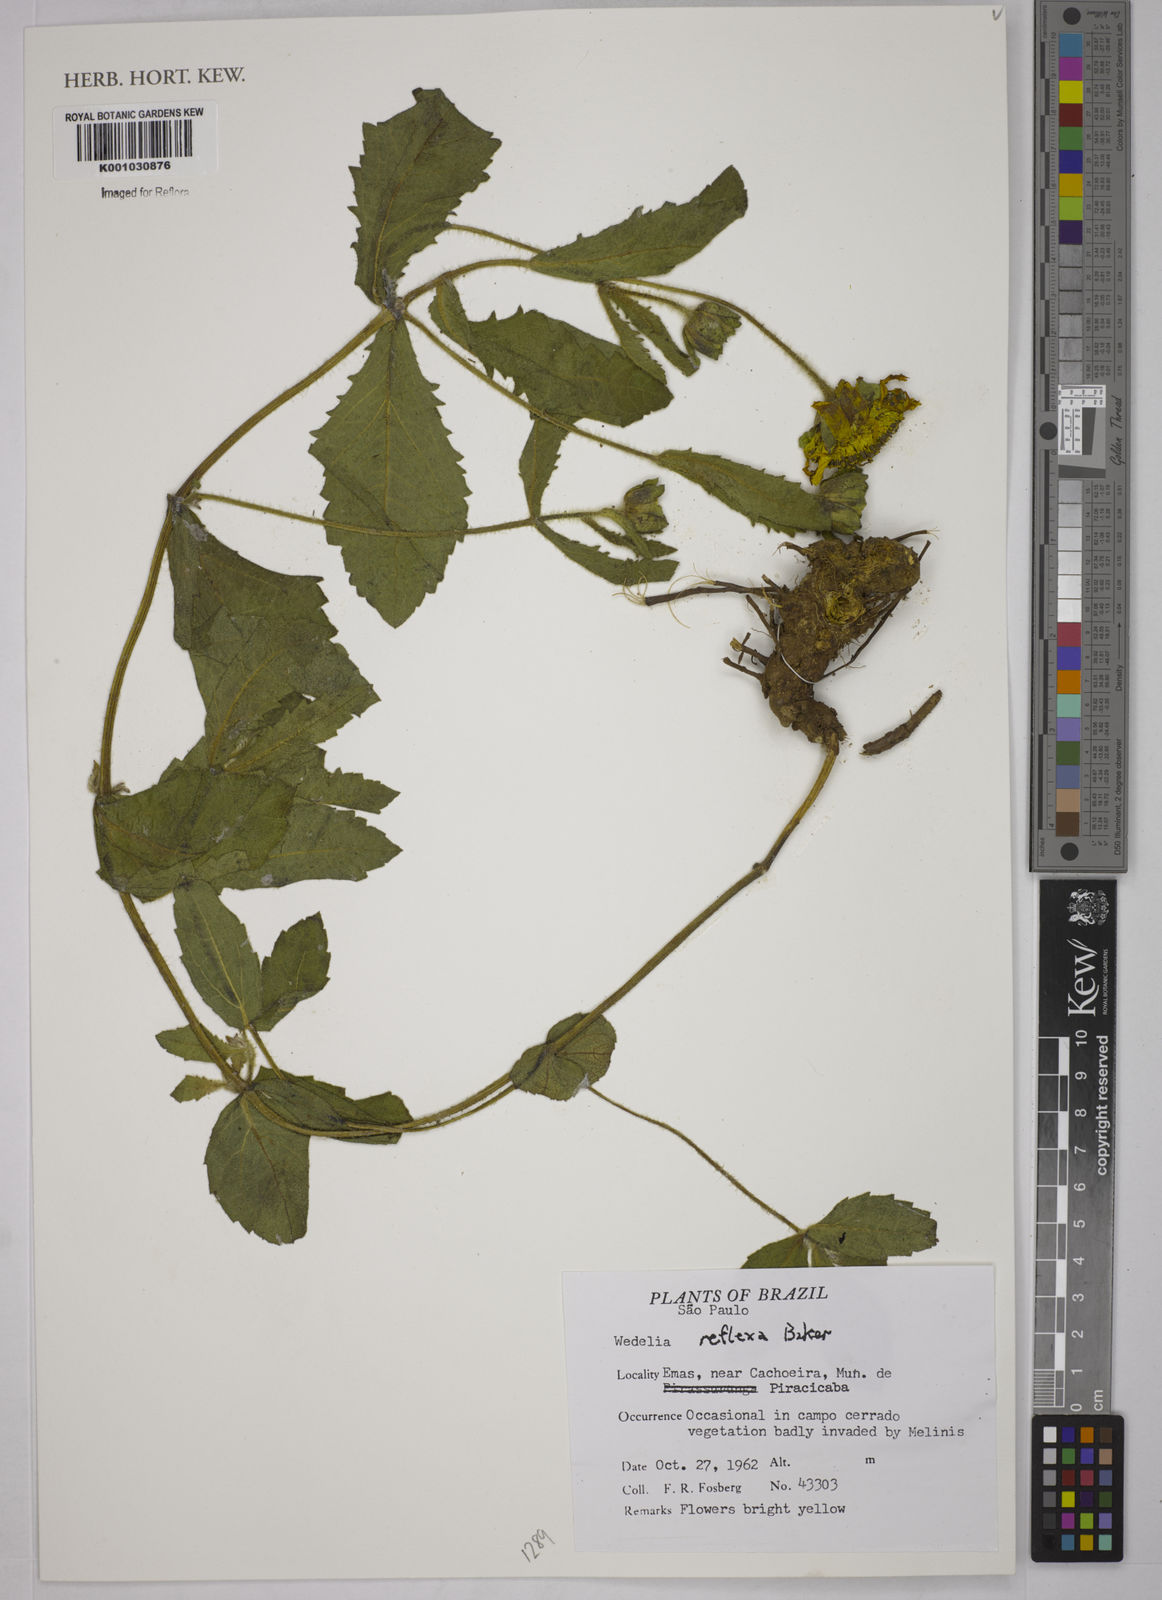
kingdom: Plantae
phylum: Tracheophyta
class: Magnoliopsida
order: Asterales
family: Asteraceae
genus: Wedelia
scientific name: Wedelia reflexa
